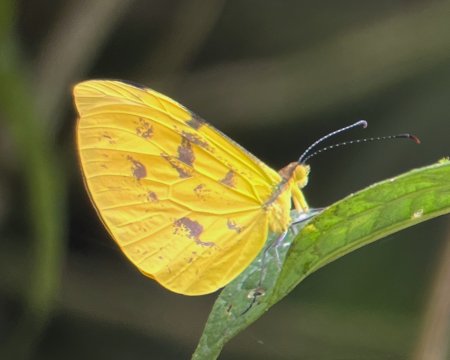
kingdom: Animalia
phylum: Arthropoda
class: Insecta
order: Lepidoptera
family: Pieridae
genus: Enantia
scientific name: Enantia albania
